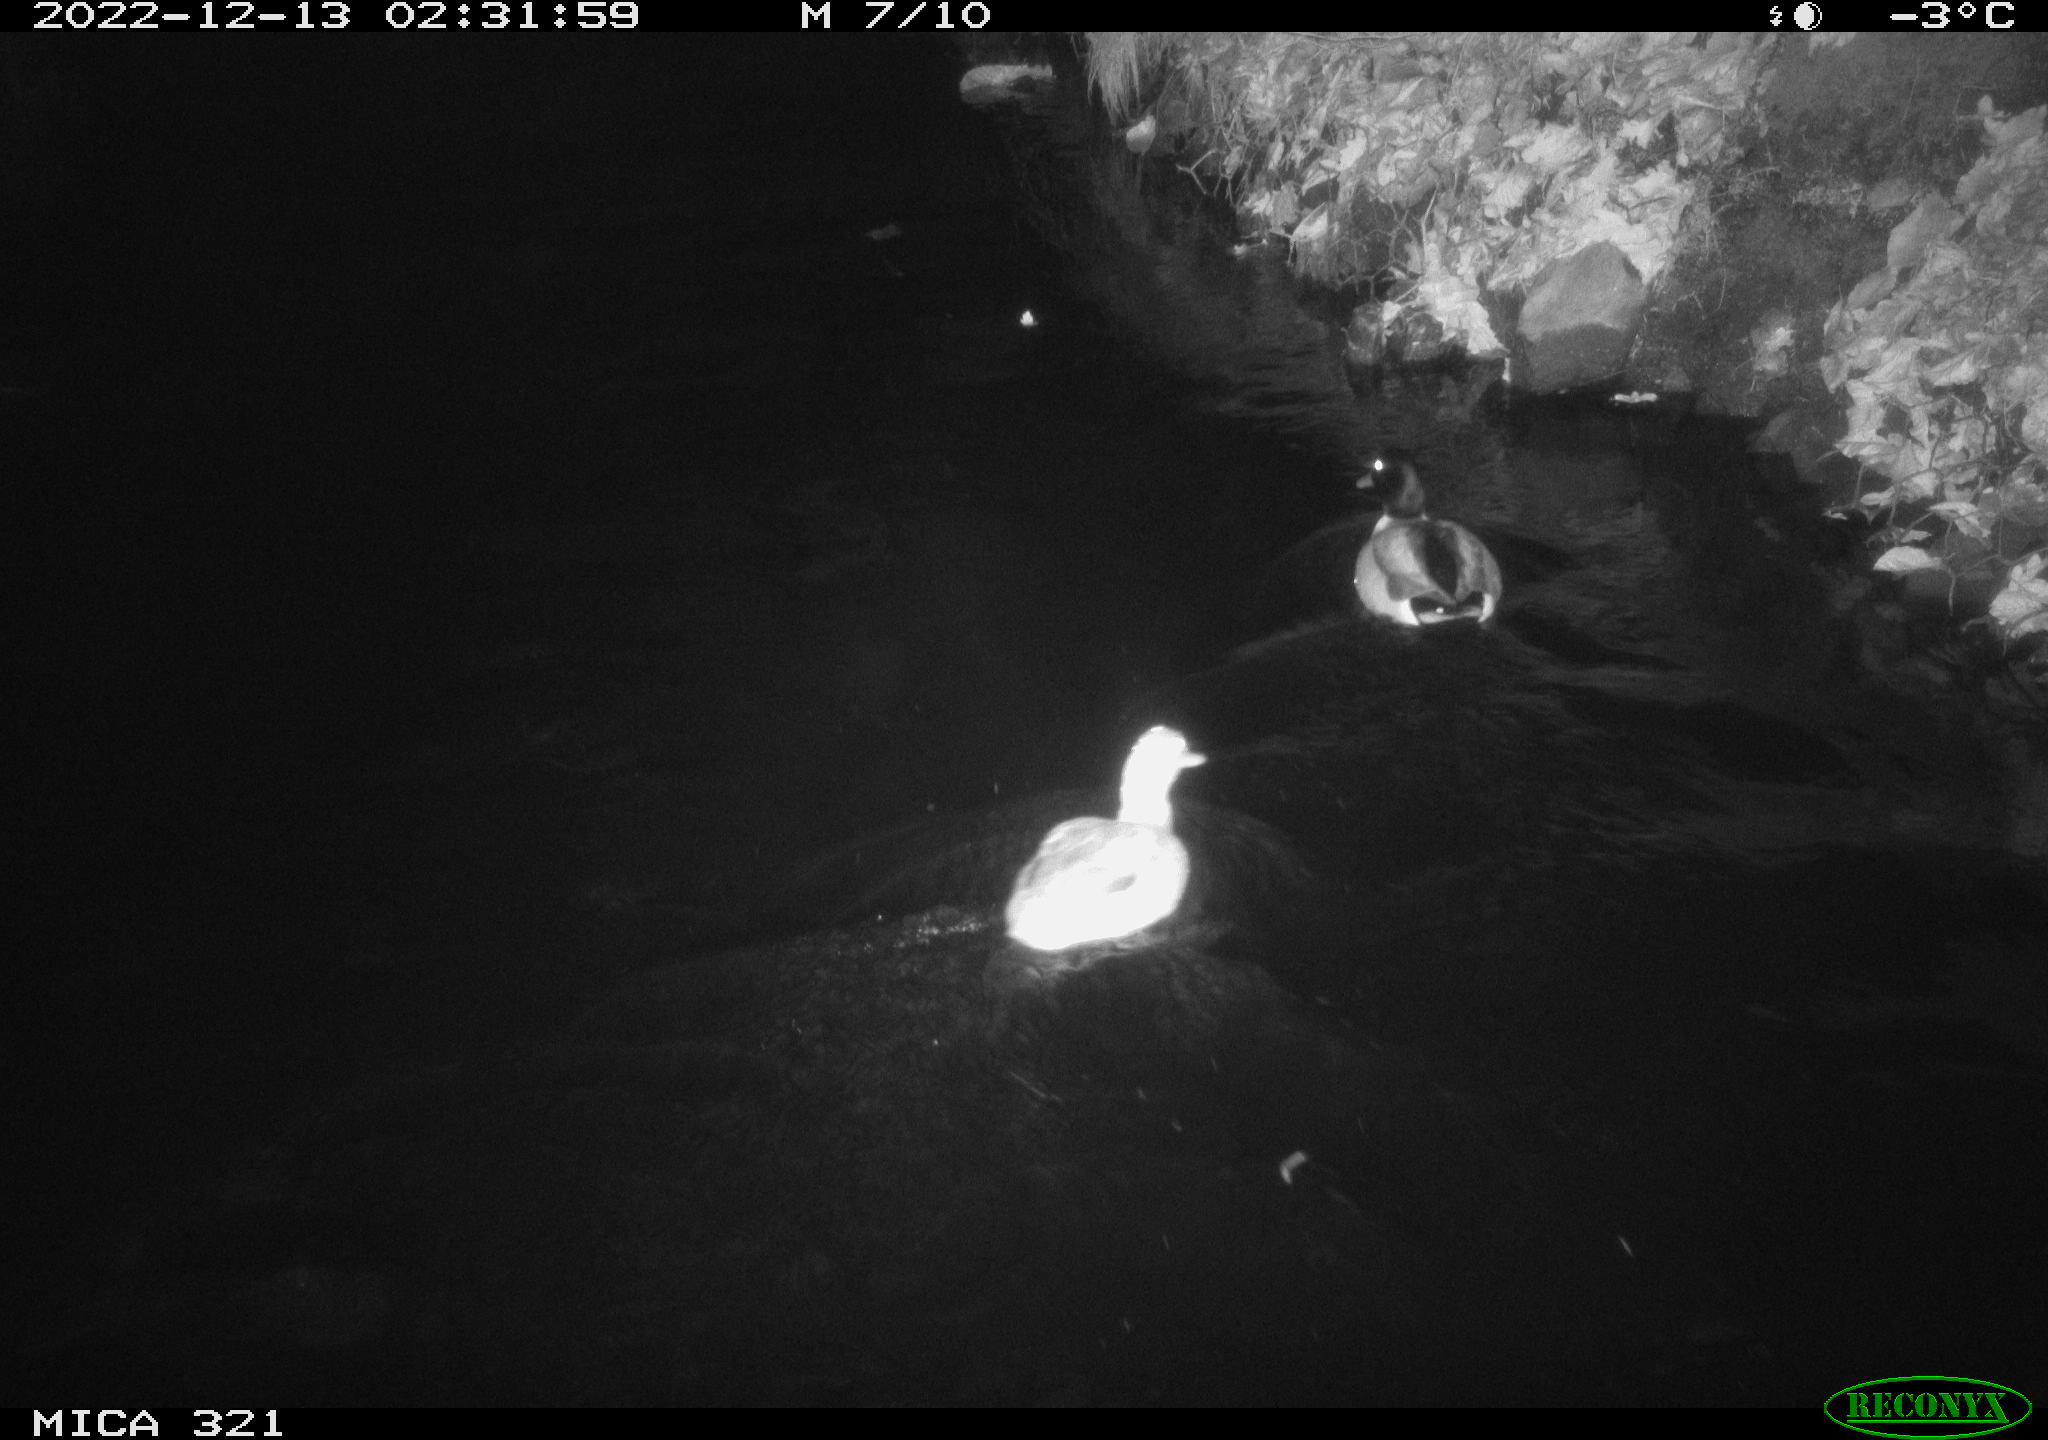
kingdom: Animalia
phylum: Chordata
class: Aves
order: Anseriformes
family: Anatidae
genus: Anas
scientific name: Anas
